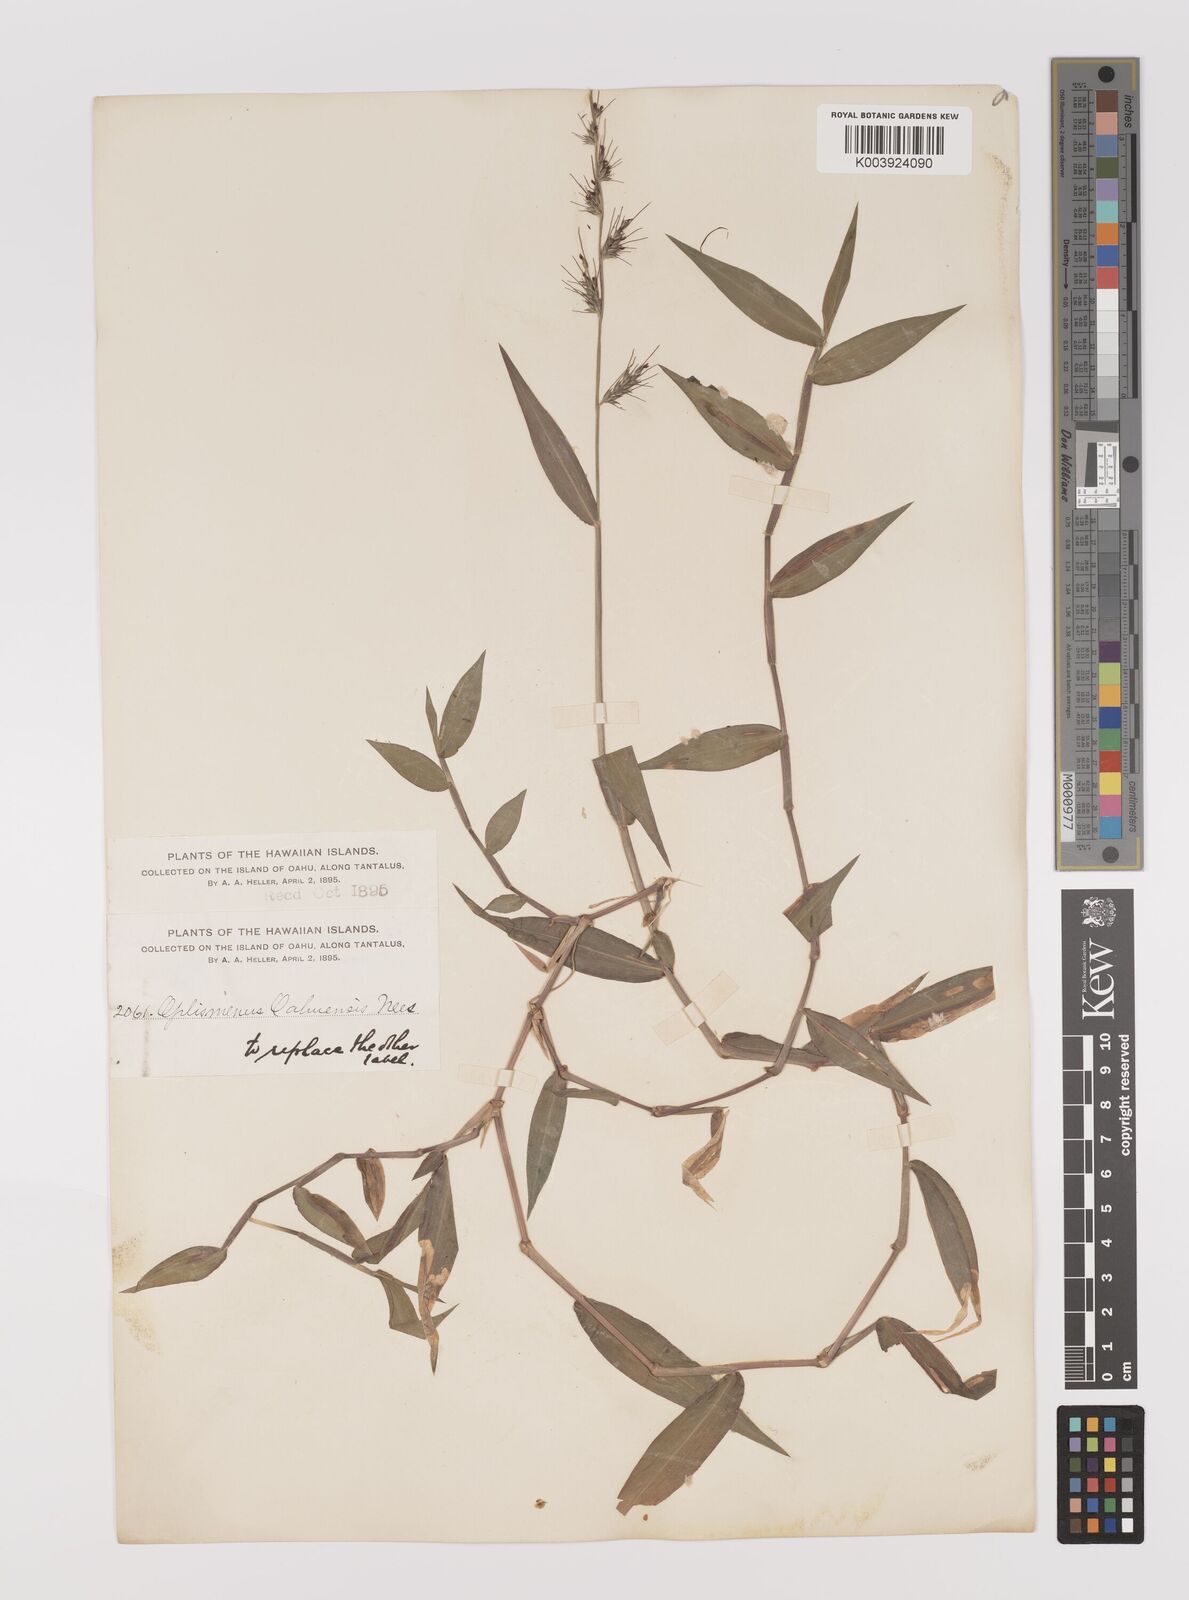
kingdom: Plantae
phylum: Tracheophyta
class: Liliopsida
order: Poales
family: Poaceae
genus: Oplismenus
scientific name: Oplismenus hirtellus
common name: Basketgrass
